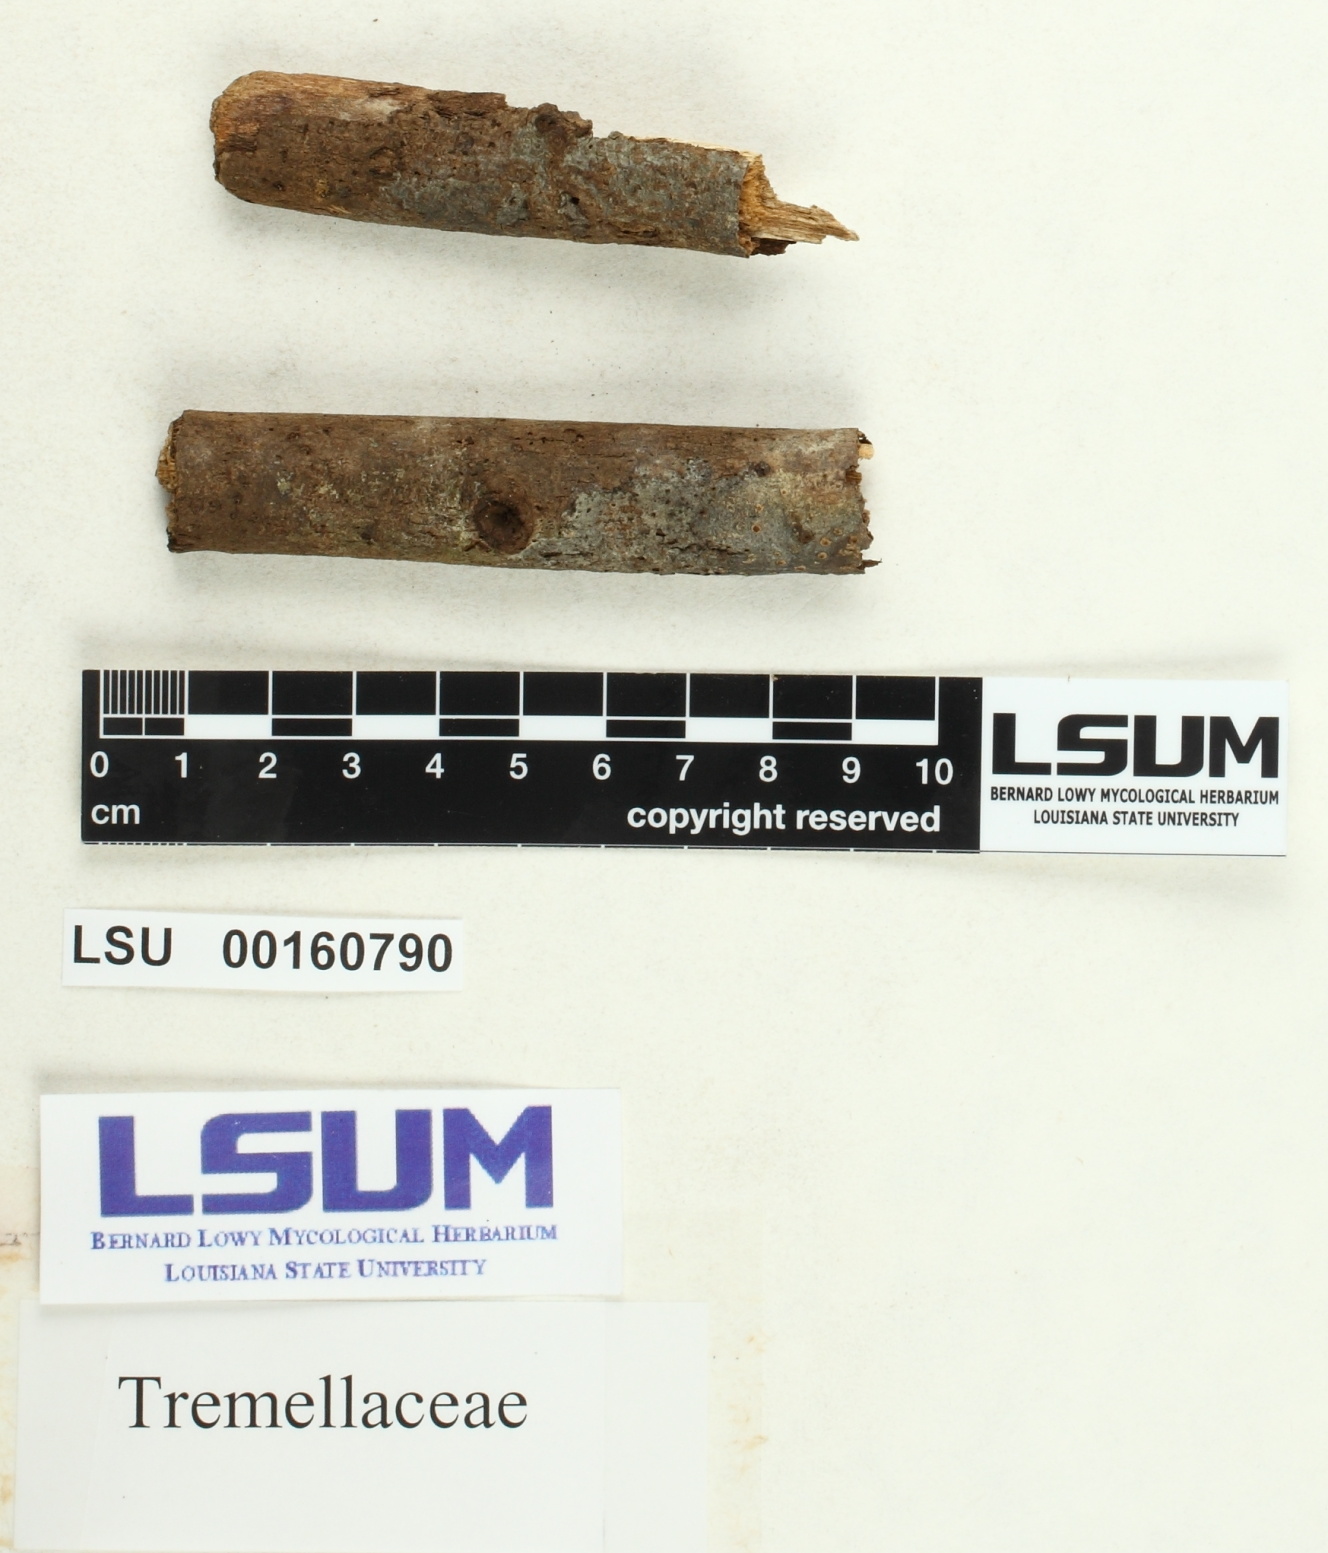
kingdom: Fungi
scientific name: Fungi
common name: Fungi
